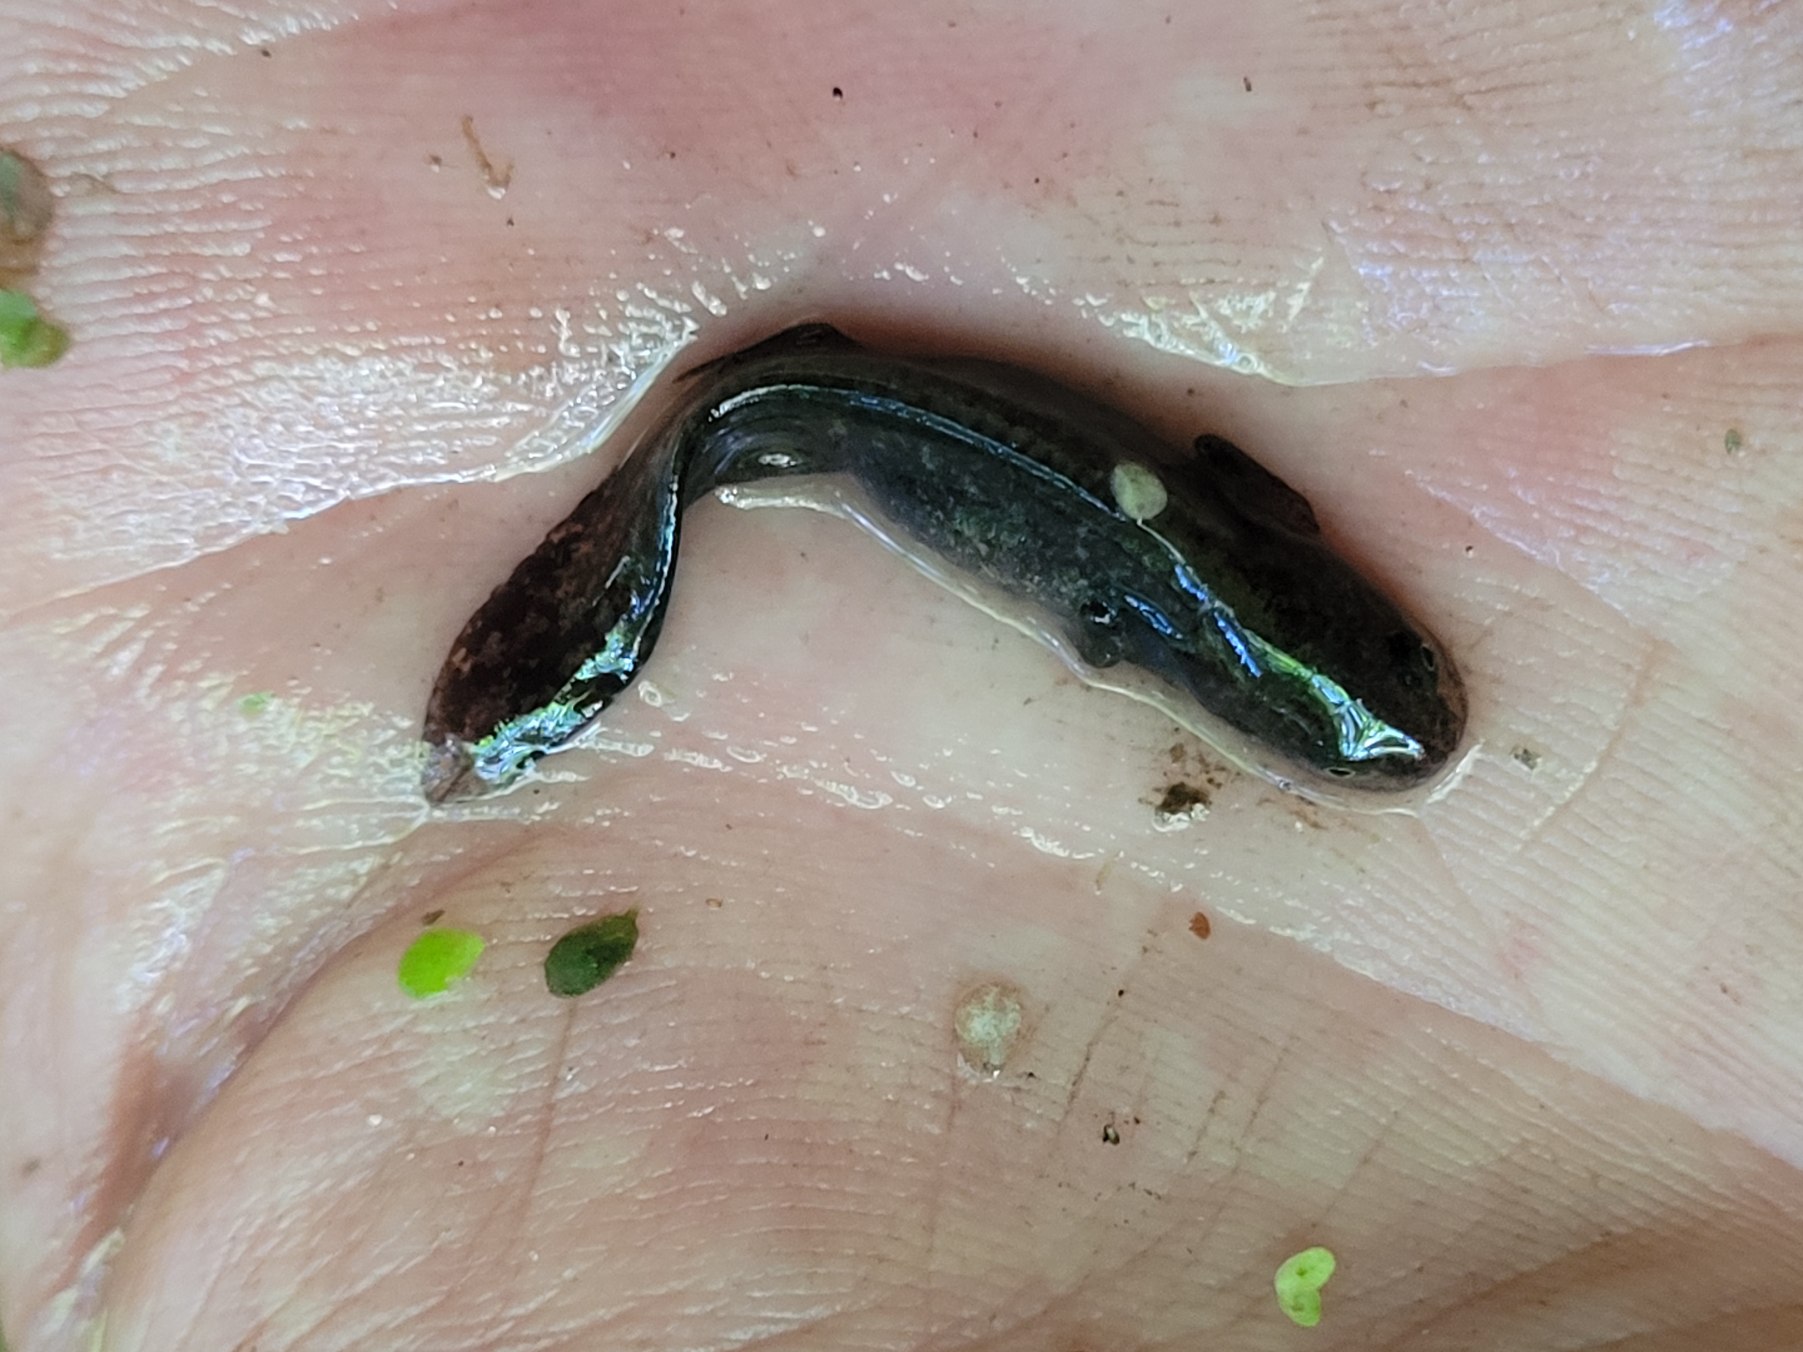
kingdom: Animalia
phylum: Chordata
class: Amphibia
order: Caudata
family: Salamandridae
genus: Ichthyosaura
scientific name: Ichthyosaura alpestris
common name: Bjergsalamander
